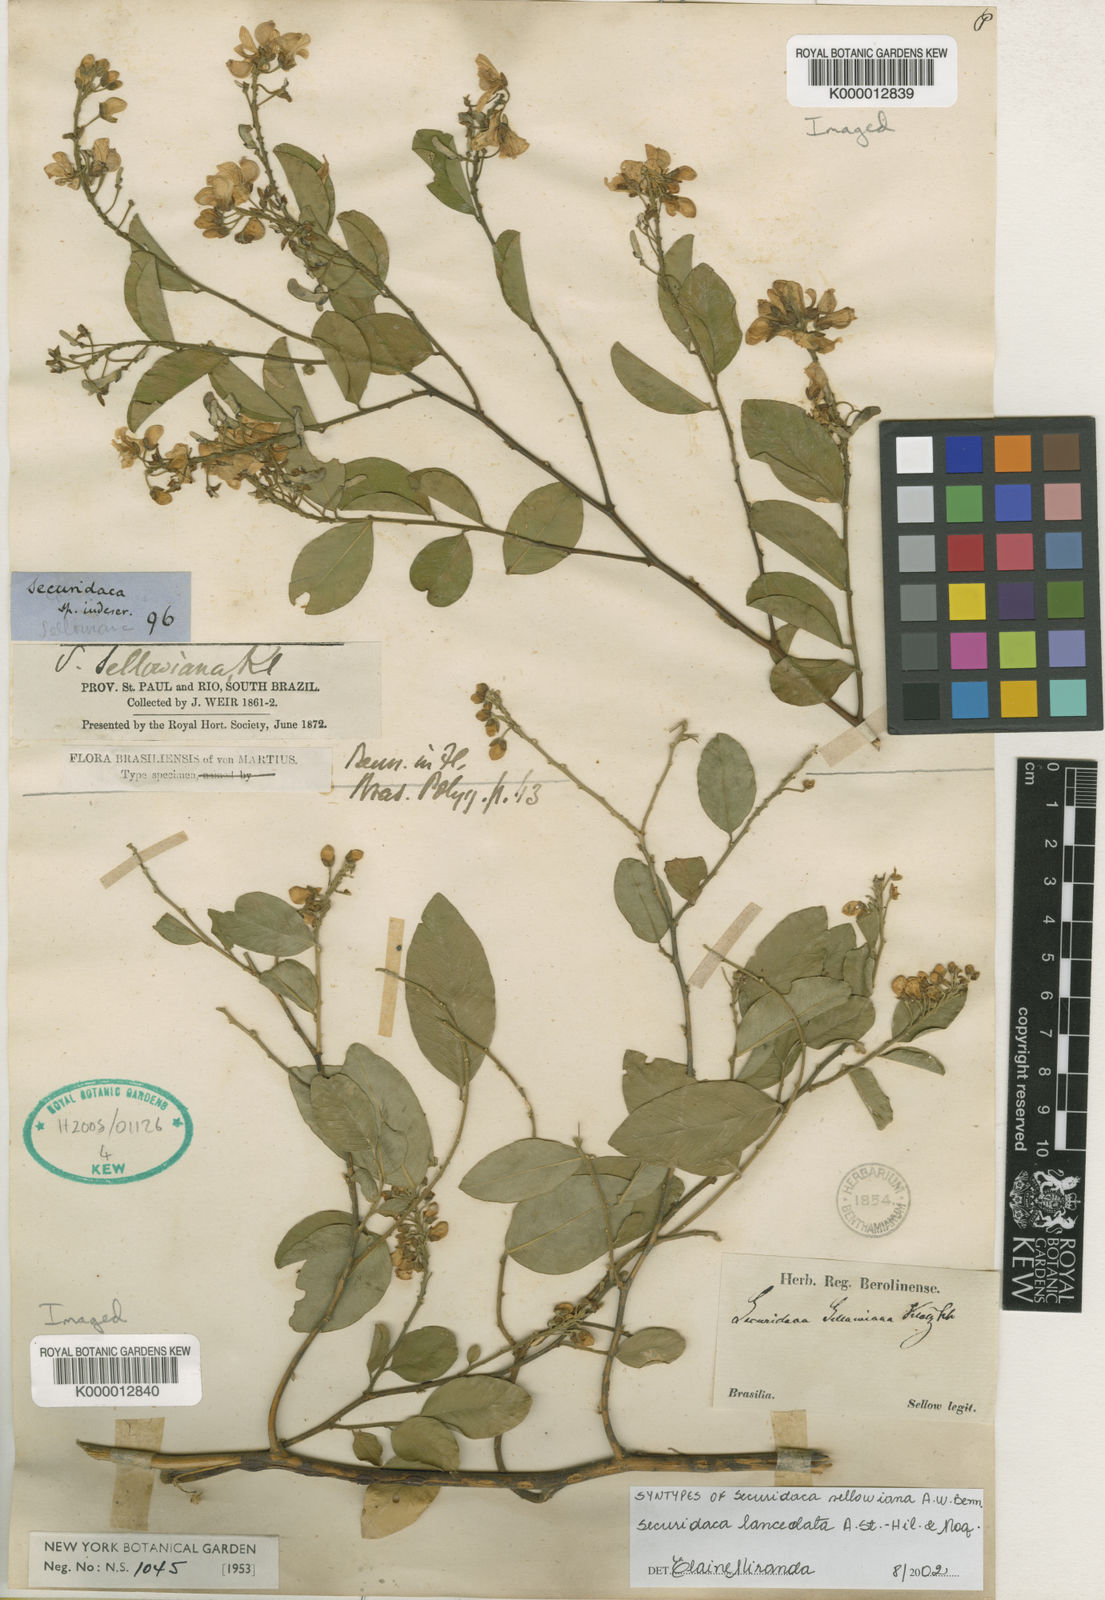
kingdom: Plantae
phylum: Tracheophyta
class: Magnoliopsida
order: Fabales
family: Polygalaceae
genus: Securidaca
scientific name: Securidaca lanceolata
